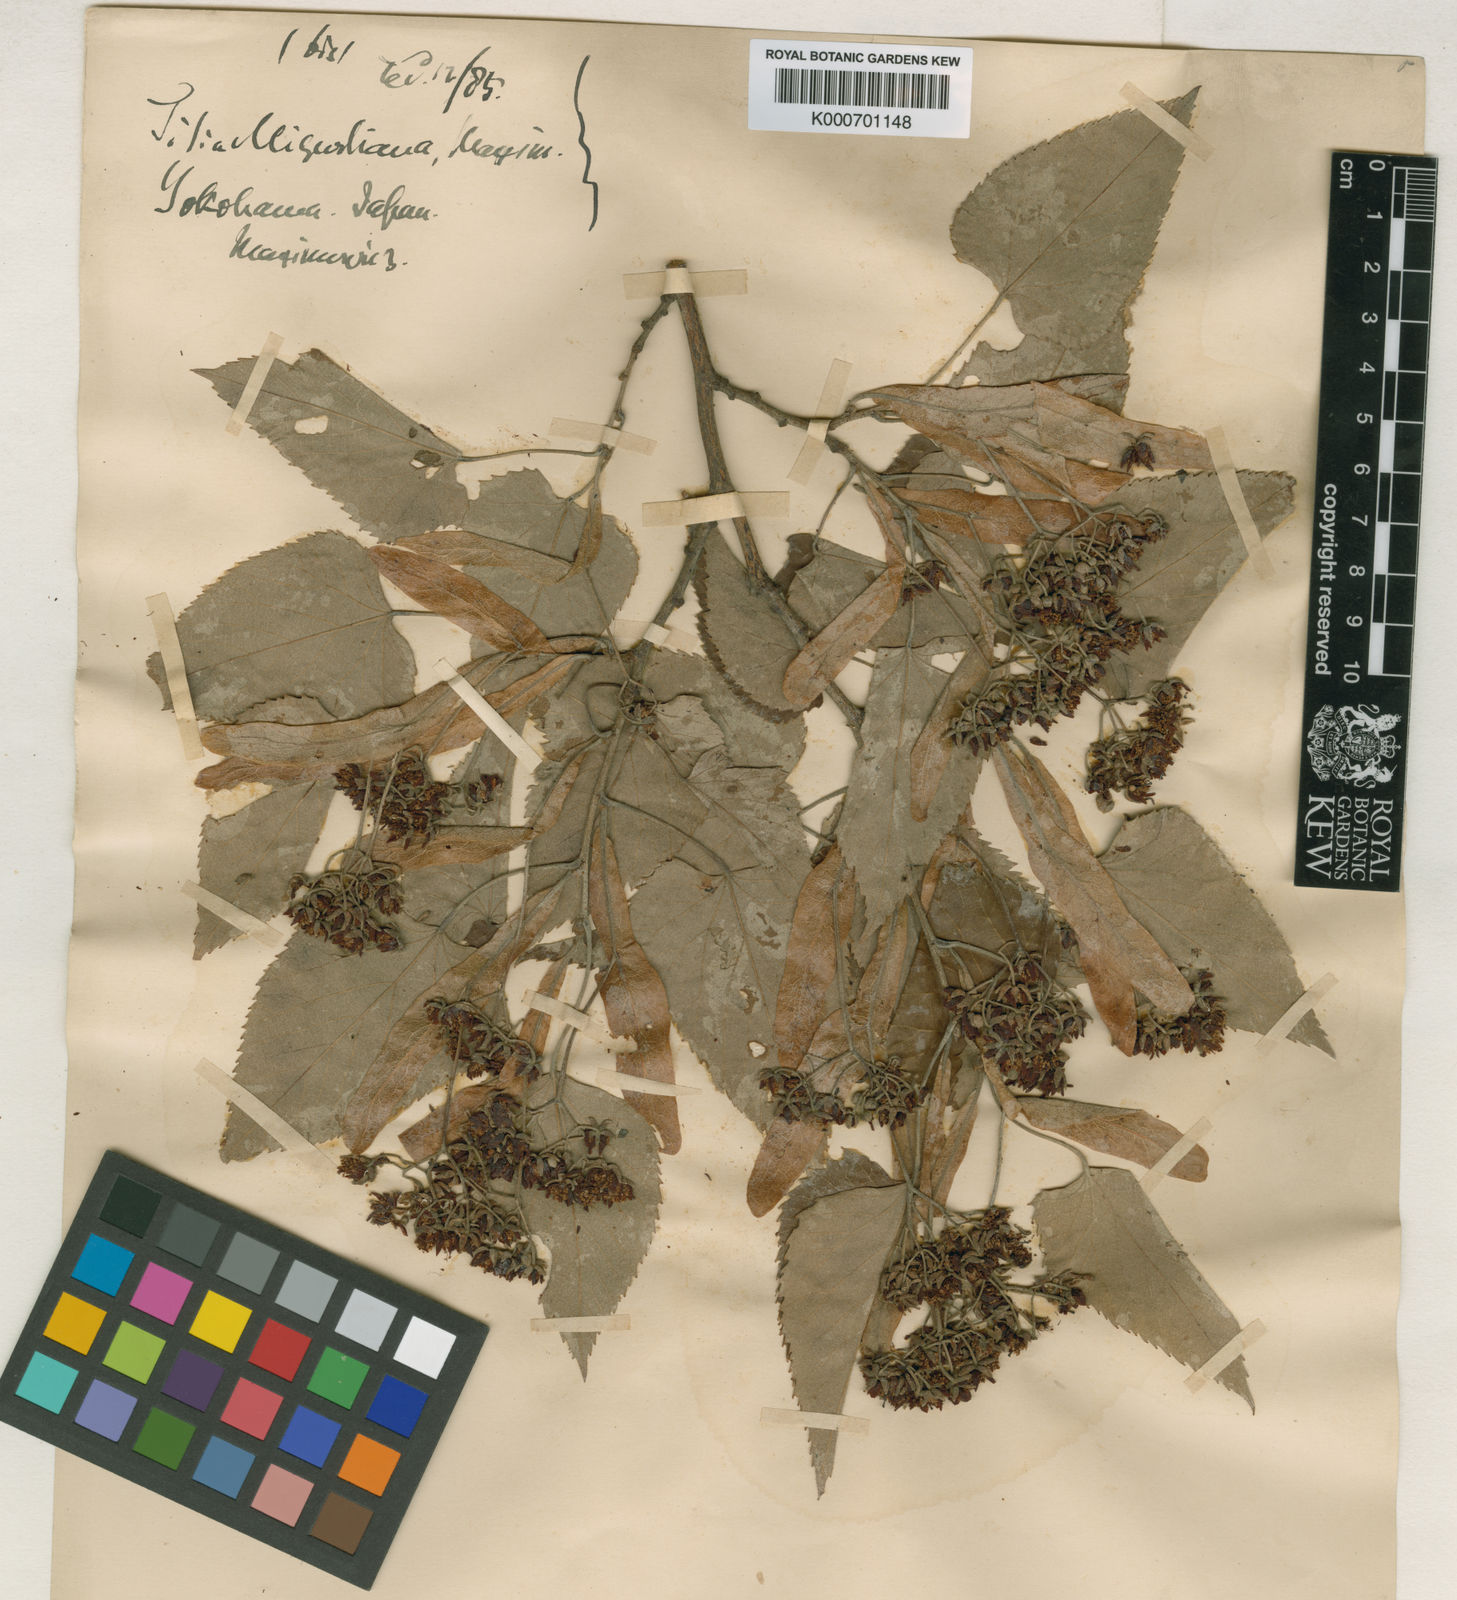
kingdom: Plantae
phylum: Tracheophyta
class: Magnoliopsida
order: Malvales
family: Malvaceae
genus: Tilia
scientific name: Tilia miqueliana
